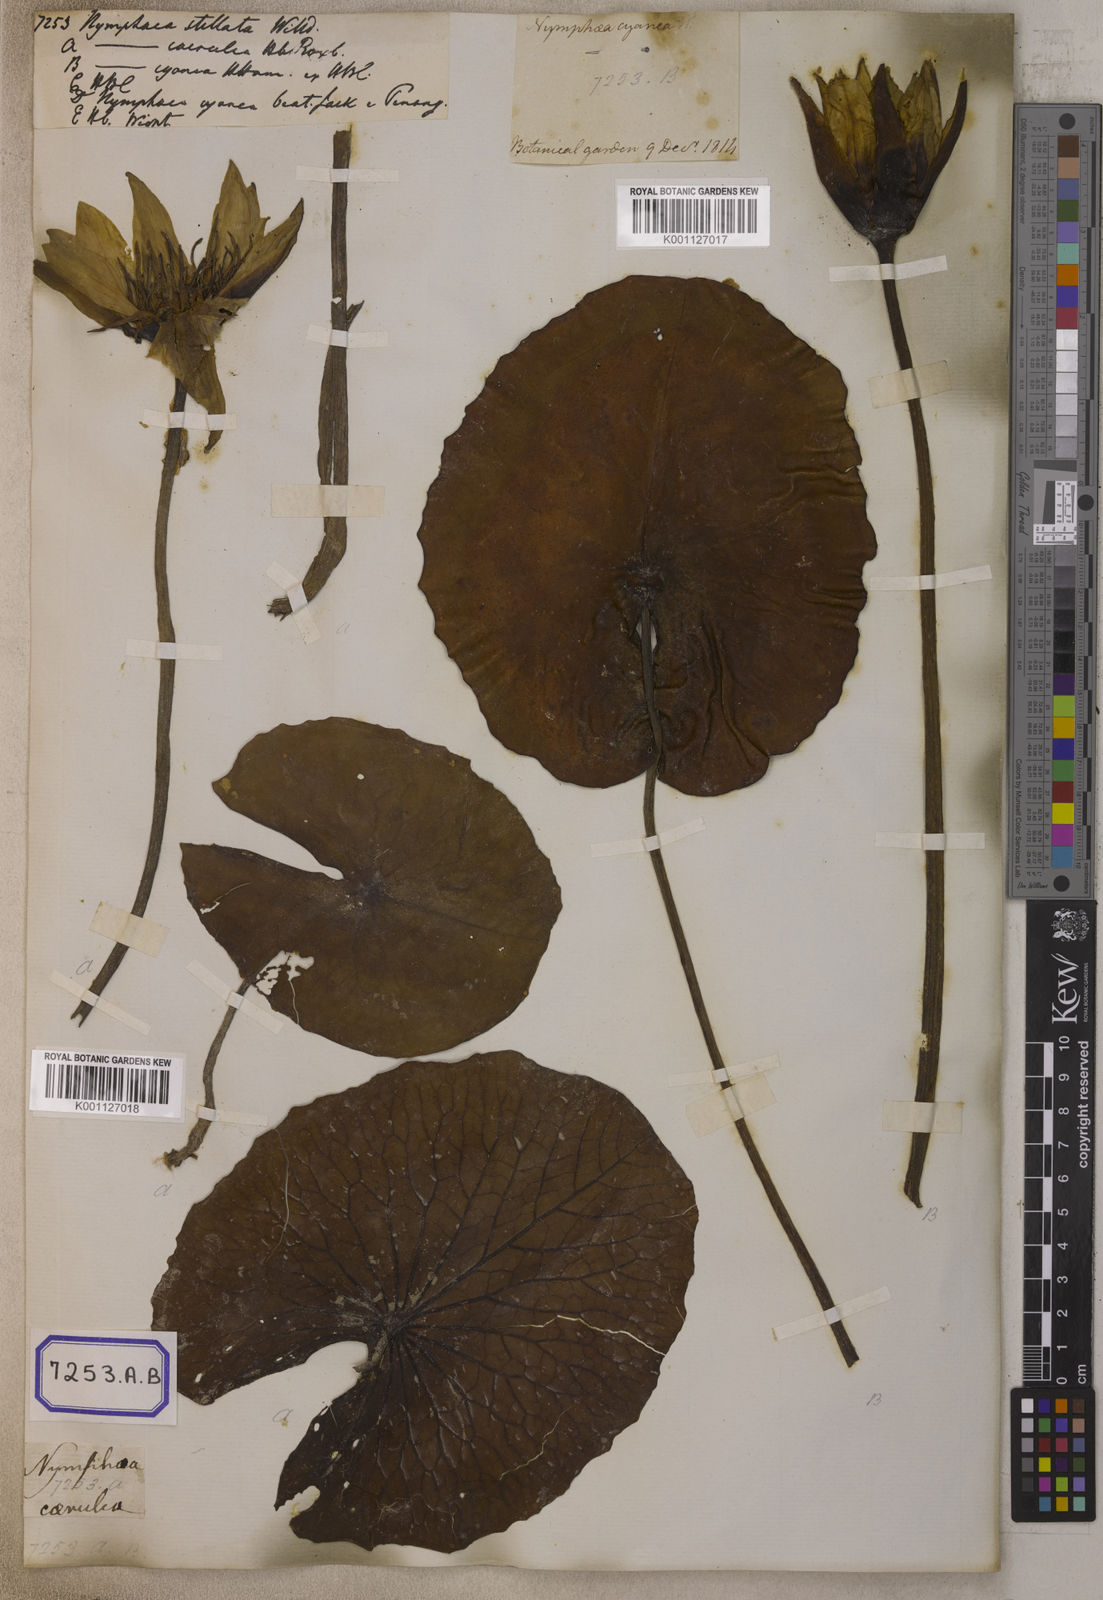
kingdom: Plantae
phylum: Tracheophyta
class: Magnoliopsida
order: Nymphaeales
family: Nymphaeaceae
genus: Nymphaea
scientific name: Nymphaea nouchali
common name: Blue lotus
